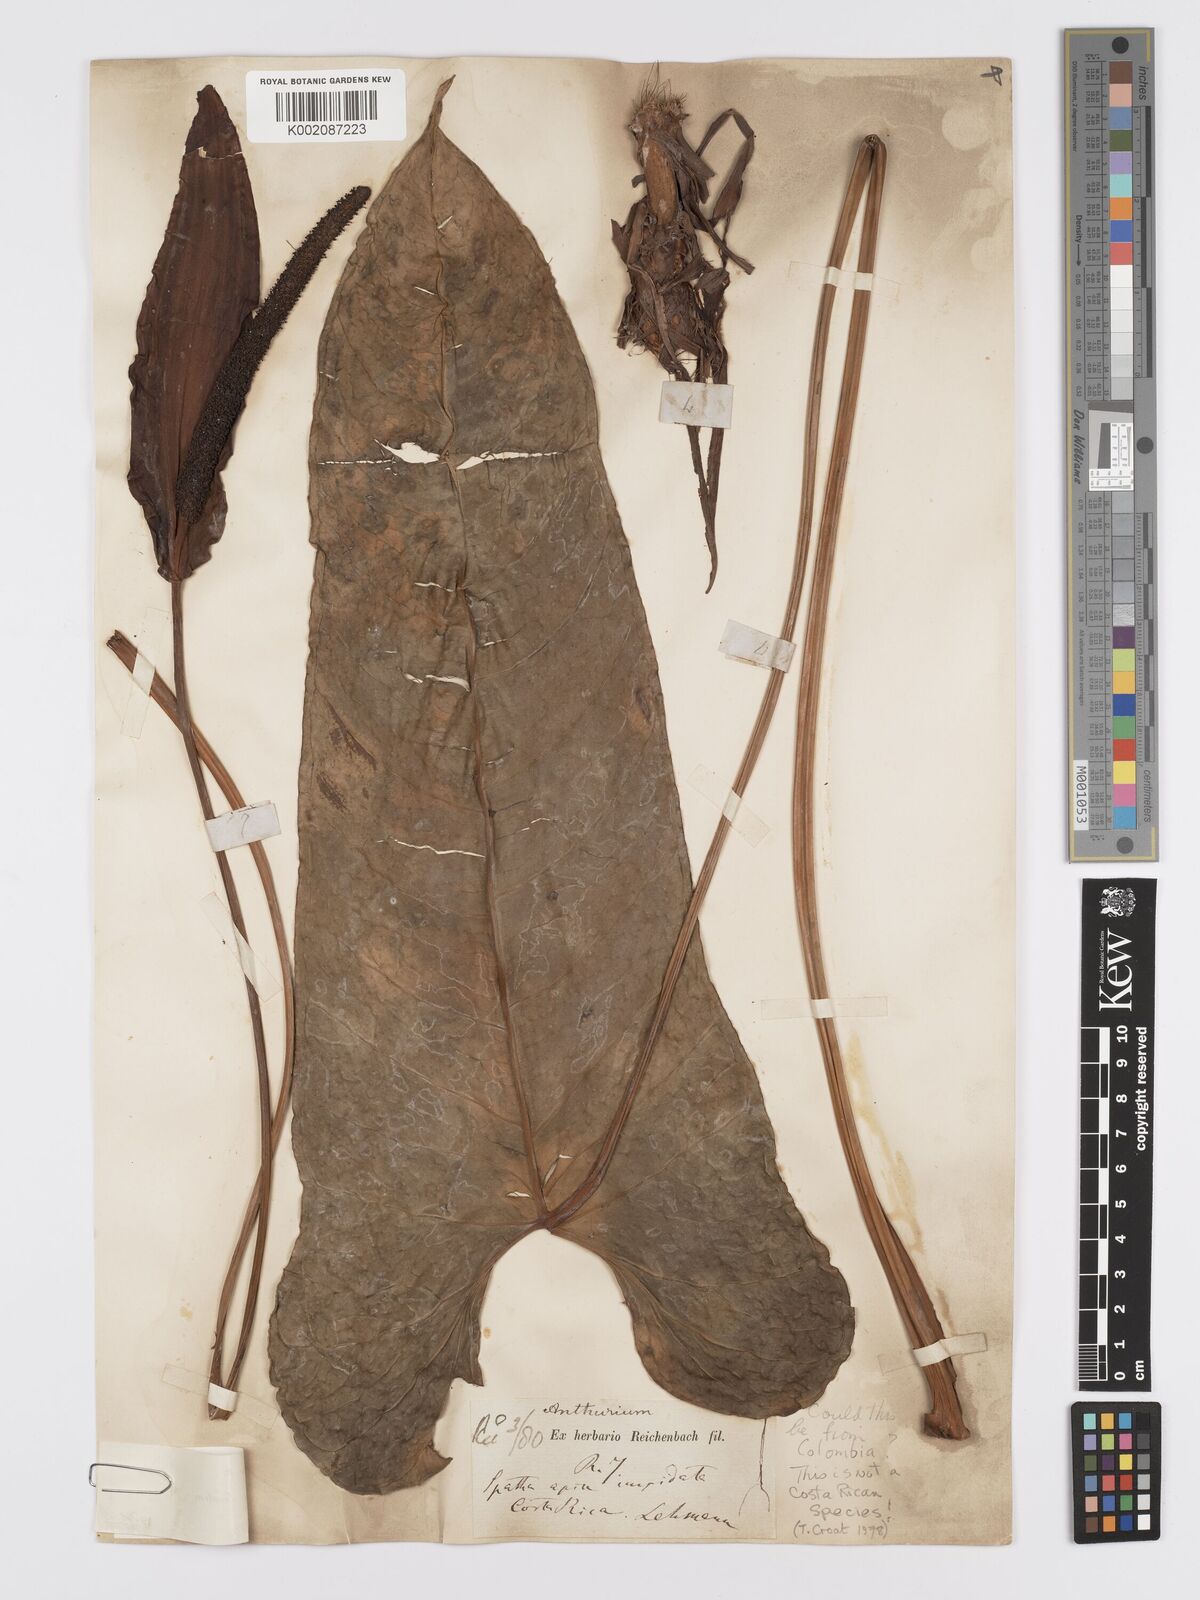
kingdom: Plantae
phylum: Tracheophyta
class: Liliopsida
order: Alismatales
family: Araceae
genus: Anthurium
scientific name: Anthurium variegatum
